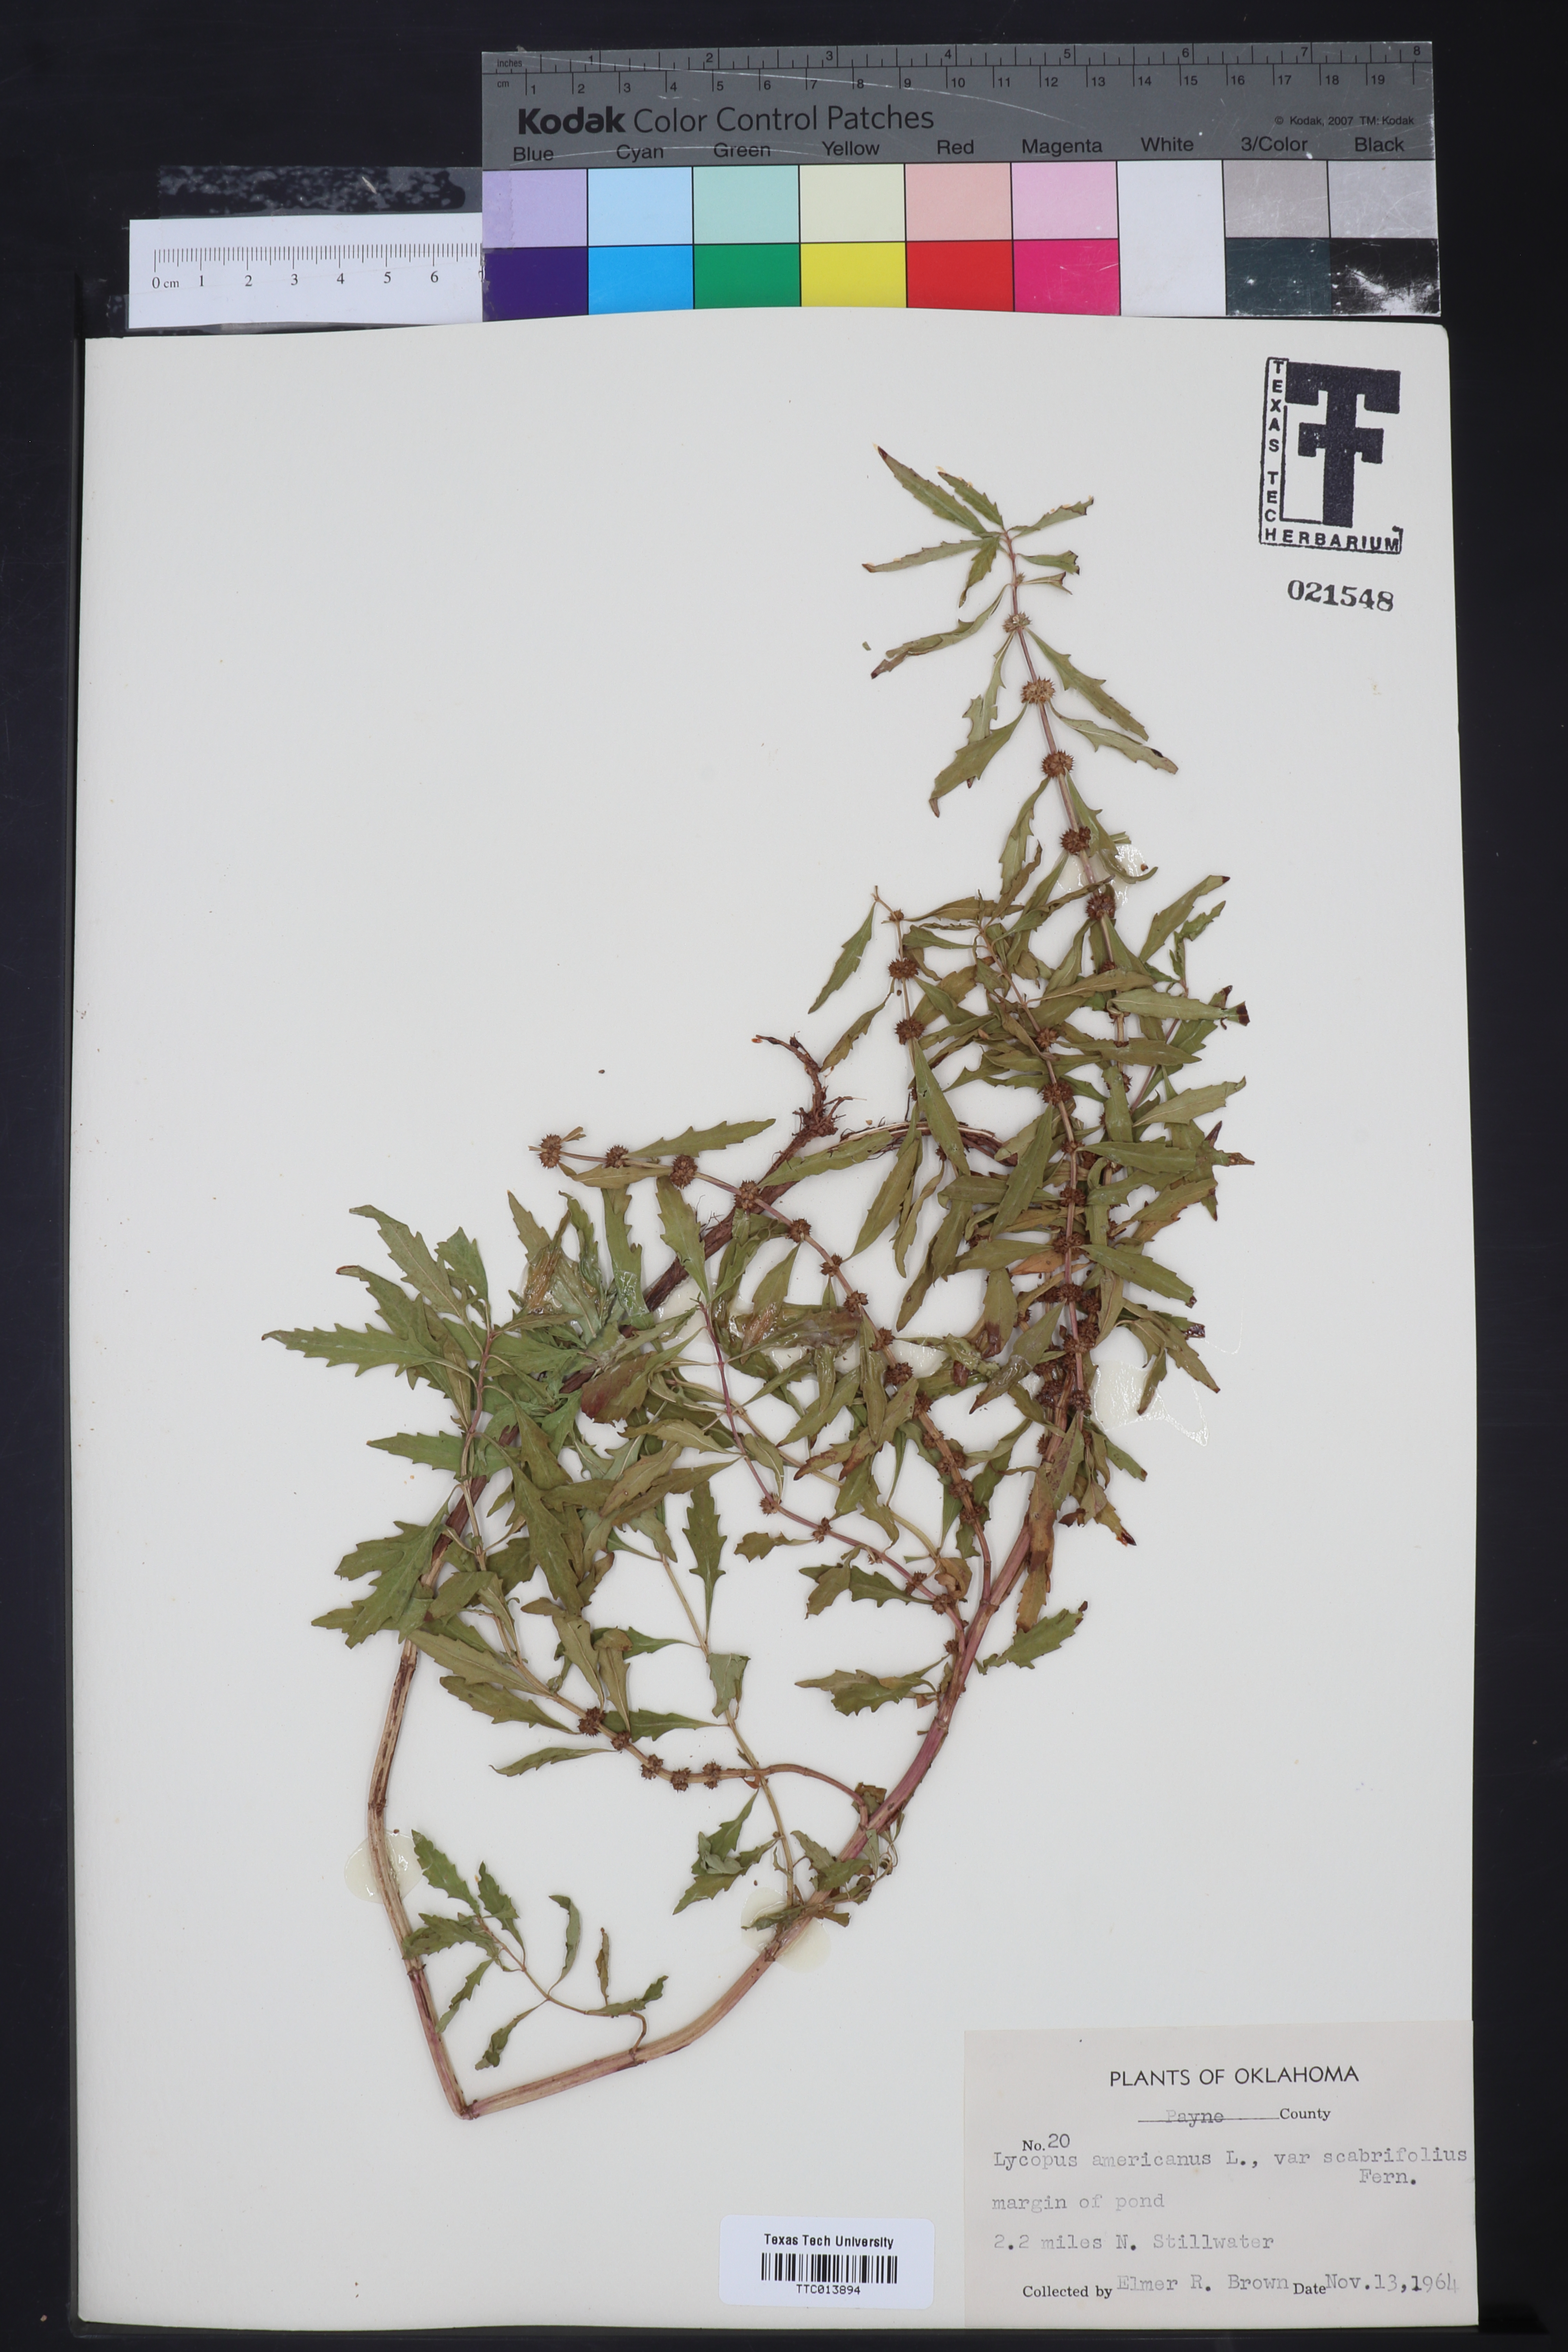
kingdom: Plantae
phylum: Tracheophyta
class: Magnoliopsida
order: Lamiales
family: Lamiaceae
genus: Lycopus
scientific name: Lycopus americanus
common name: American bugleweed
